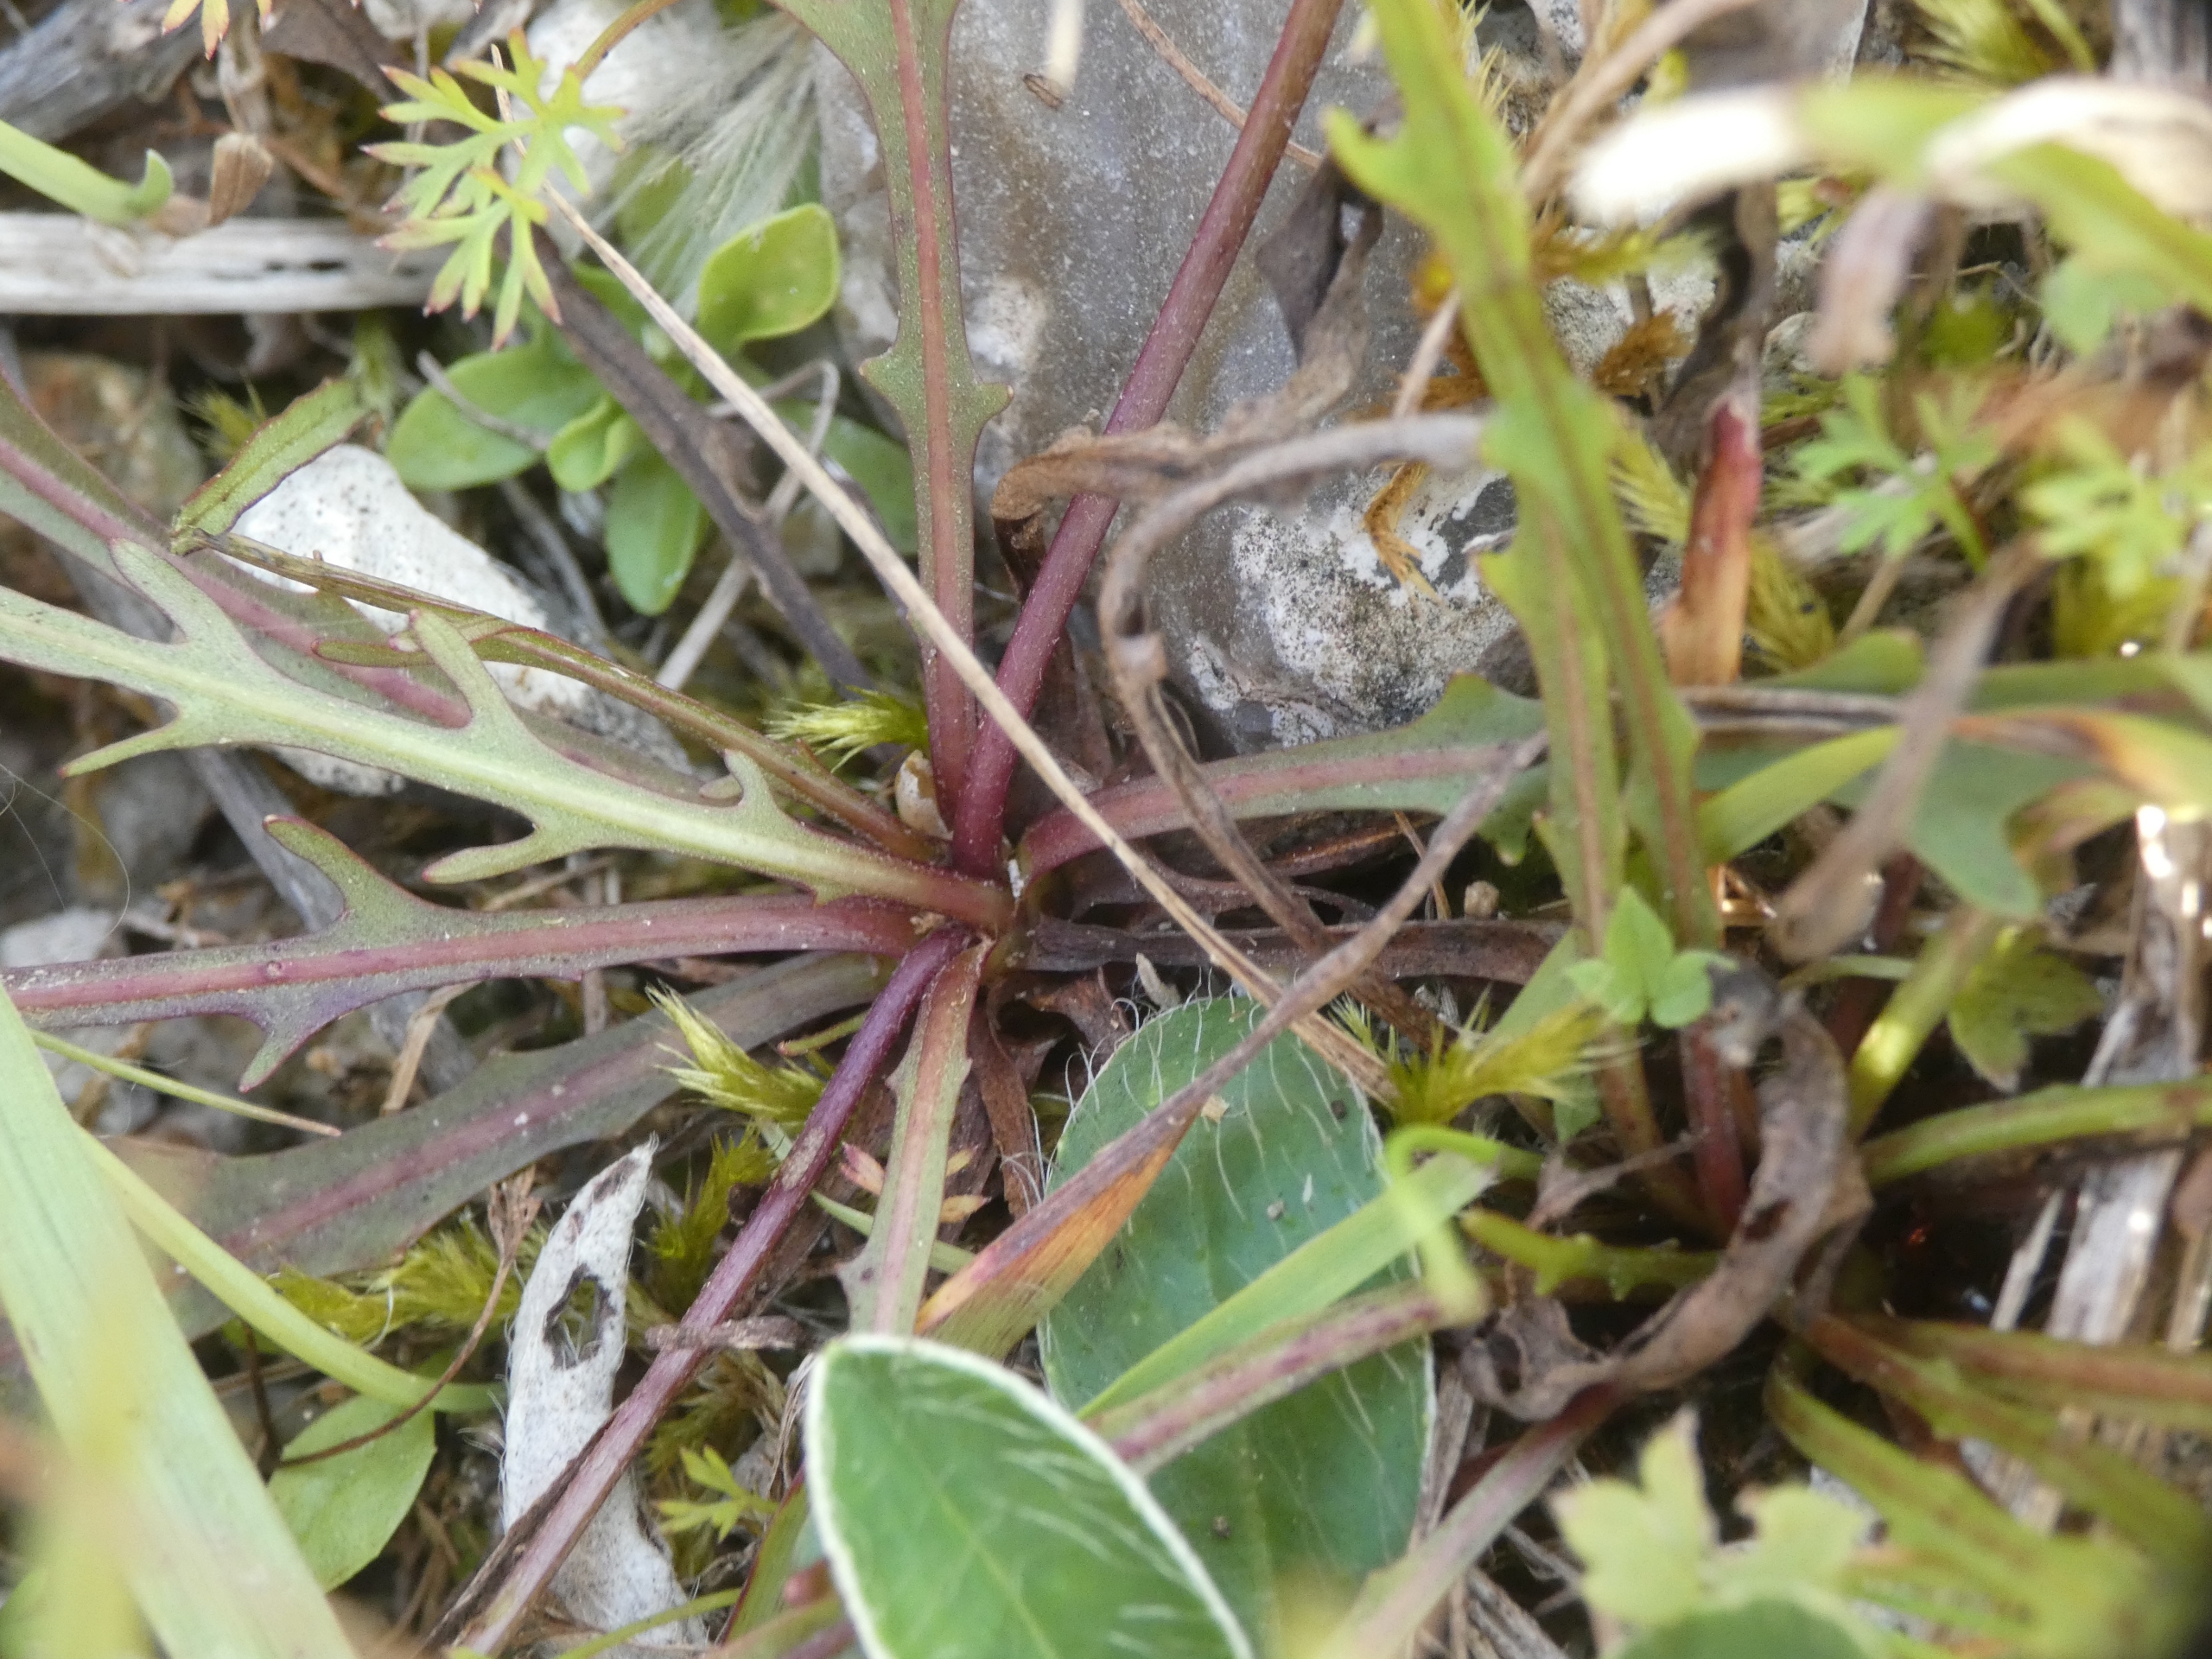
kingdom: Plantae
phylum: Tracheophyta
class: Magnoliopsida
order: Asterales
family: Asteraceae
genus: Scorzoneroides
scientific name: Scorzoneroides autumnalis
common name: Høst-borst
